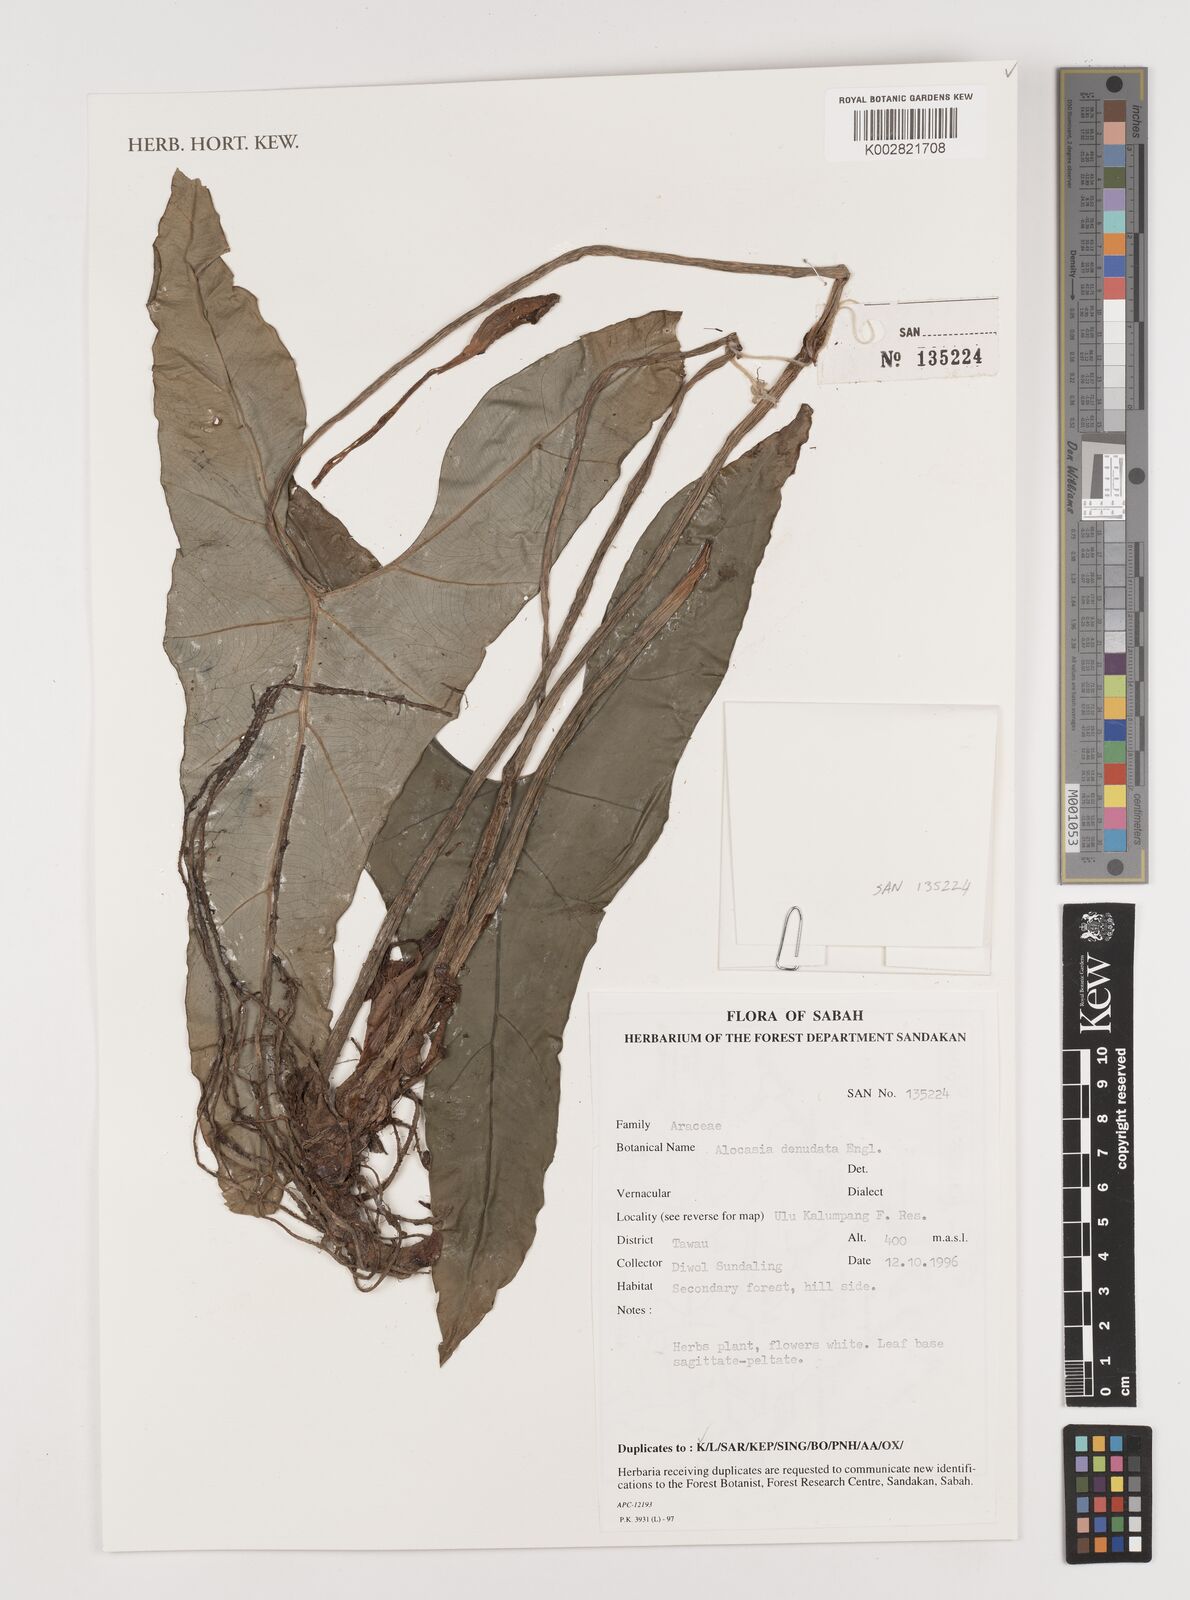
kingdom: Plantae
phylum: Tracheophyta
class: Liliopsida
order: Alismatales
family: Araceae
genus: Alocasia
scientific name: Alocasia longiloba
